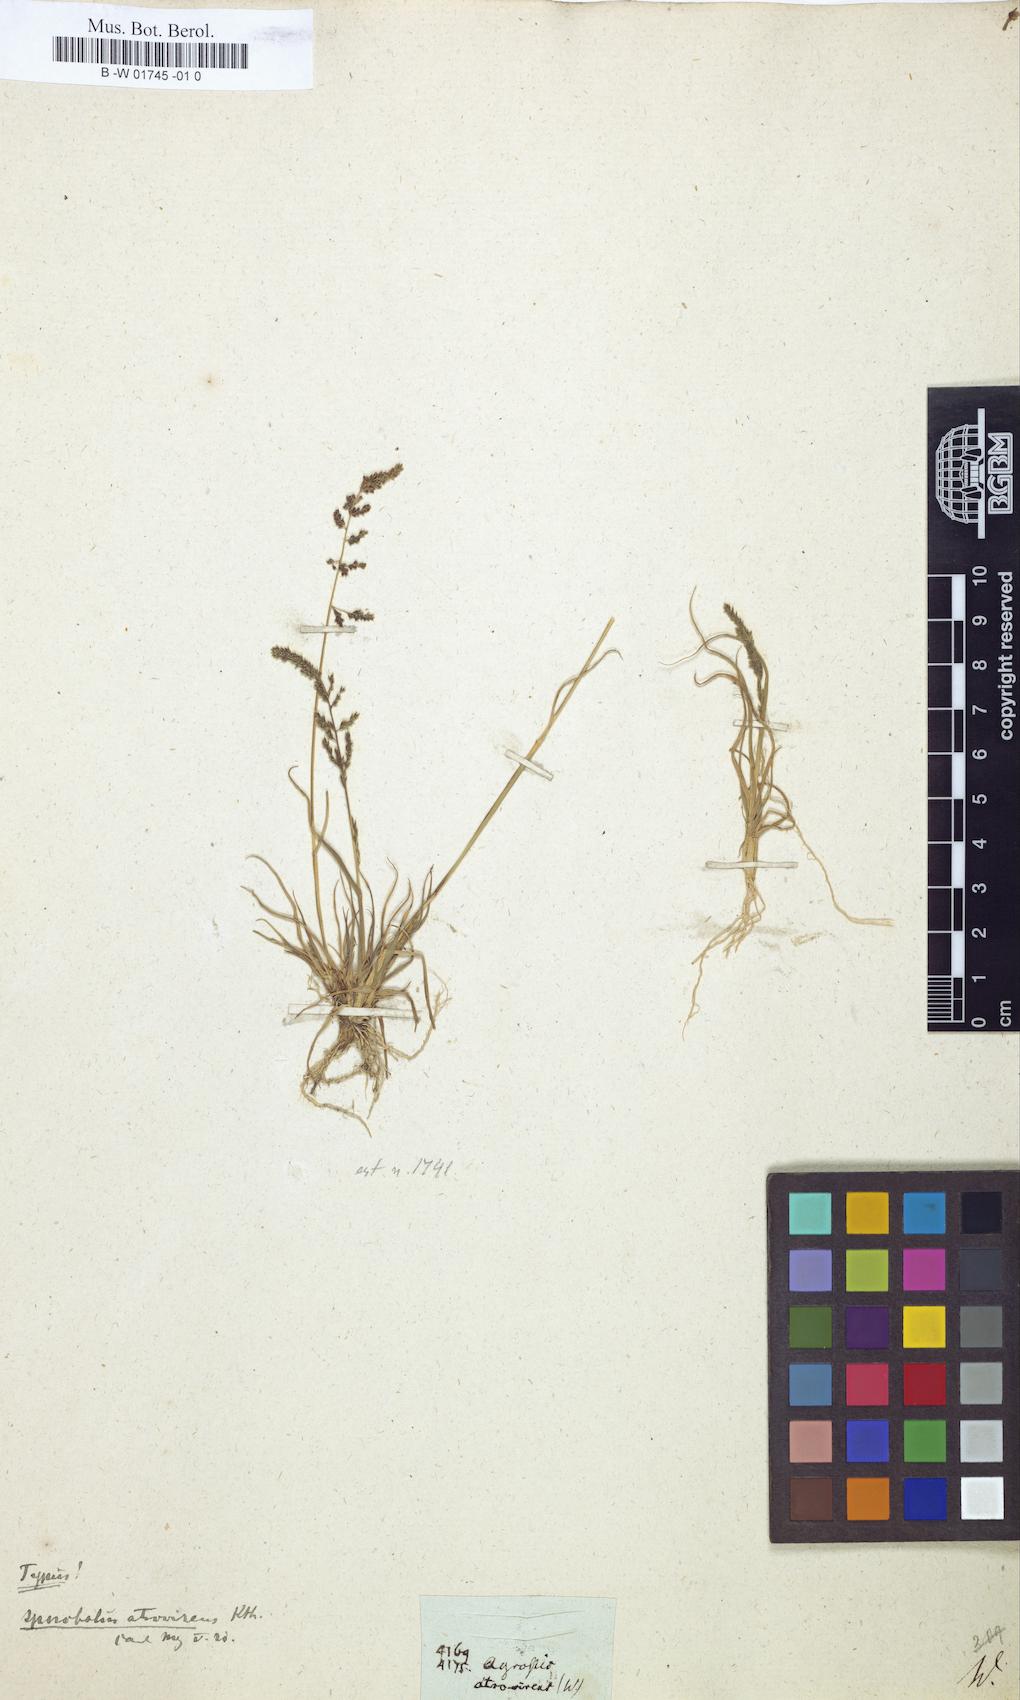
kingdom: Plantae
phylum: Tracheophyta
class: Liliopsida
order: Poales
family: Poaceae
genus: Sporobolus
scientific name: Sporobolus atrovirens
